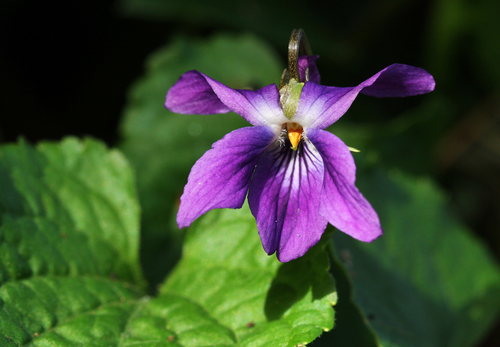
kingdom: Plantae
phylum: Tracheophyta
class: Magnoliopsida
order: Malpighiales
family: Violaceae
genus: Viola
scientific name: Viola odorata
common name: Sweet violet
